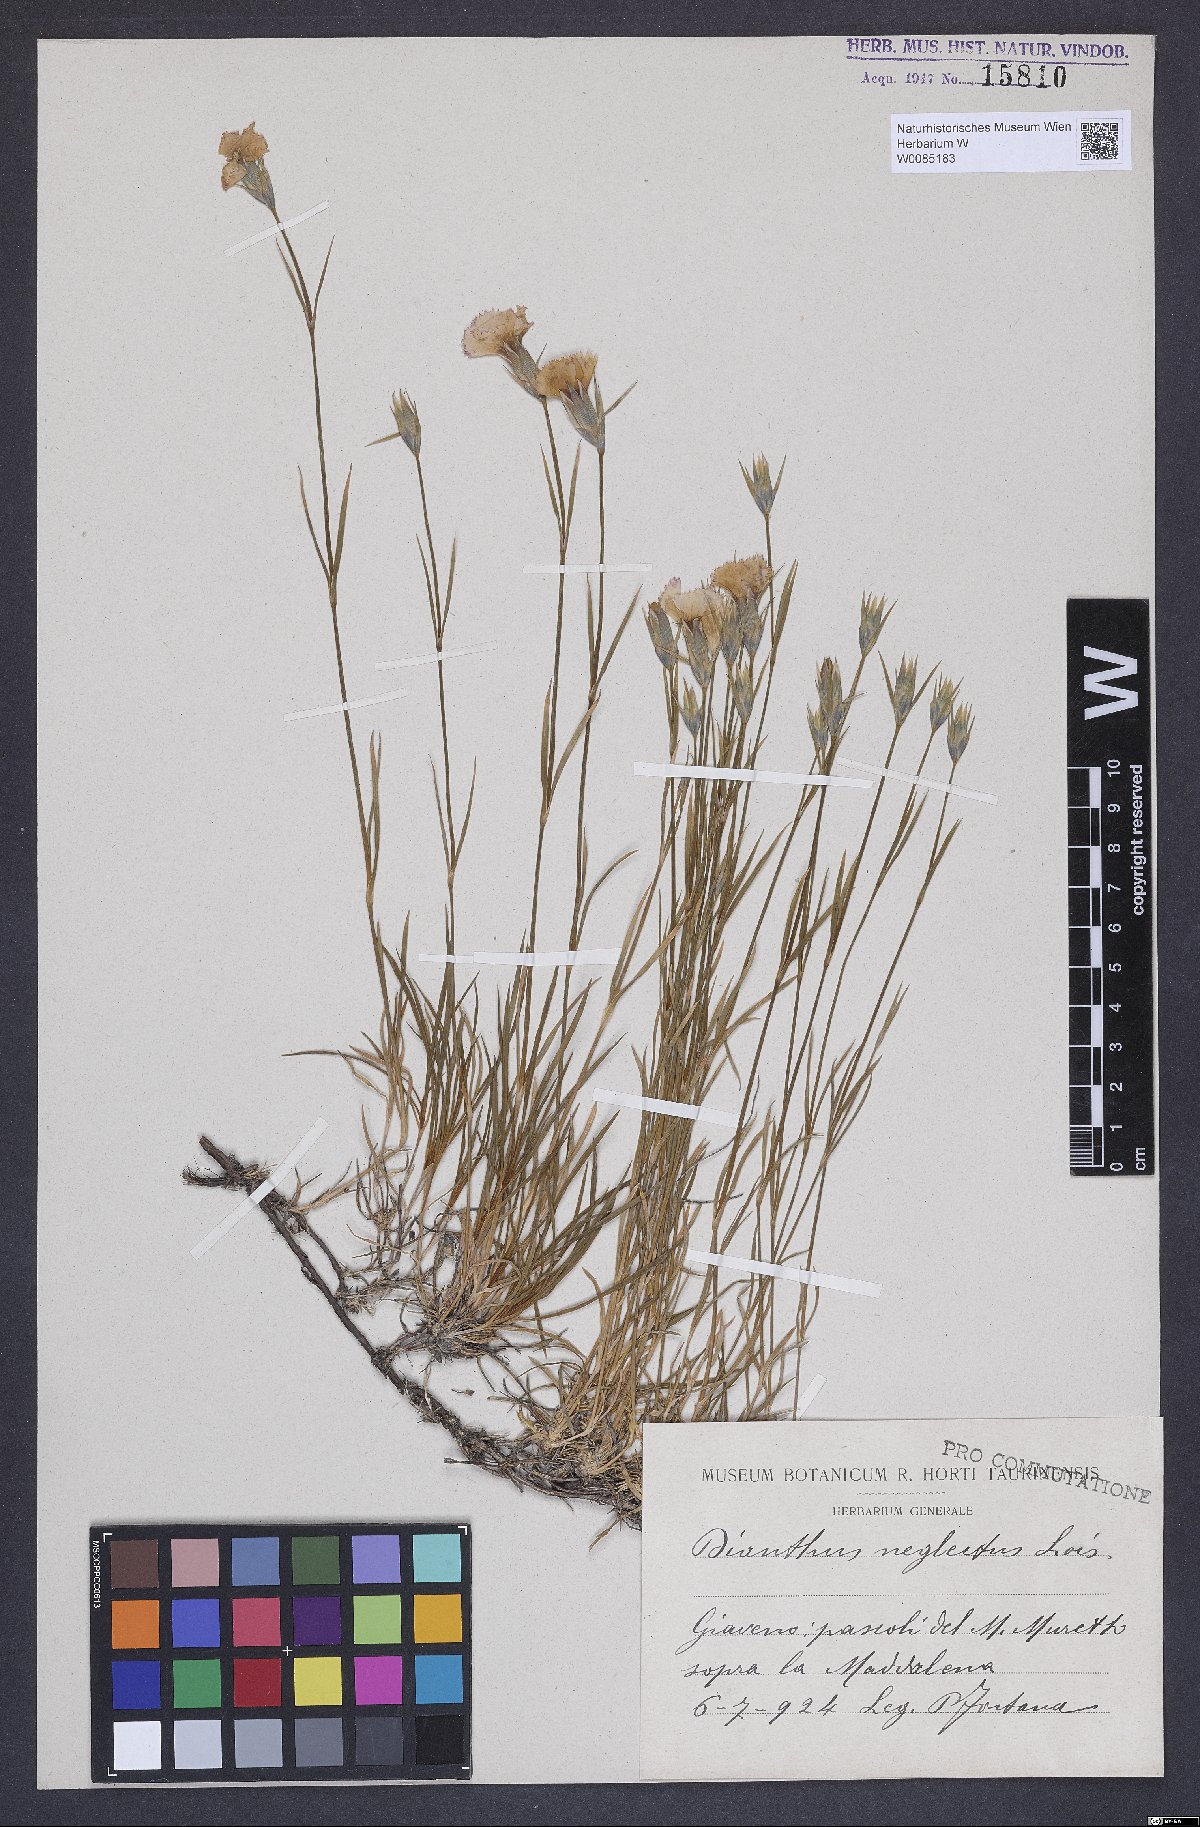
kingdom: Plantae
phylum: Tracheophyta
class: Magnoliopsida
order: Caryophyllales
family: Caryophyllaceae
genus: Dianthus
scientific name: Dianthus pavonius
